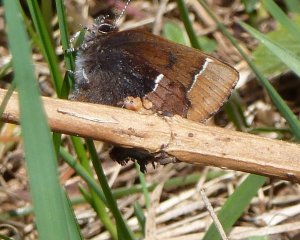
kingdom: Animalia
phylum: Arthropoda
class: Insecta
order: Lepidoptera
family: Lycaenidae
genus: Incisalia
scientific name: Incisalia henrici
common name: Henry's Elfin
